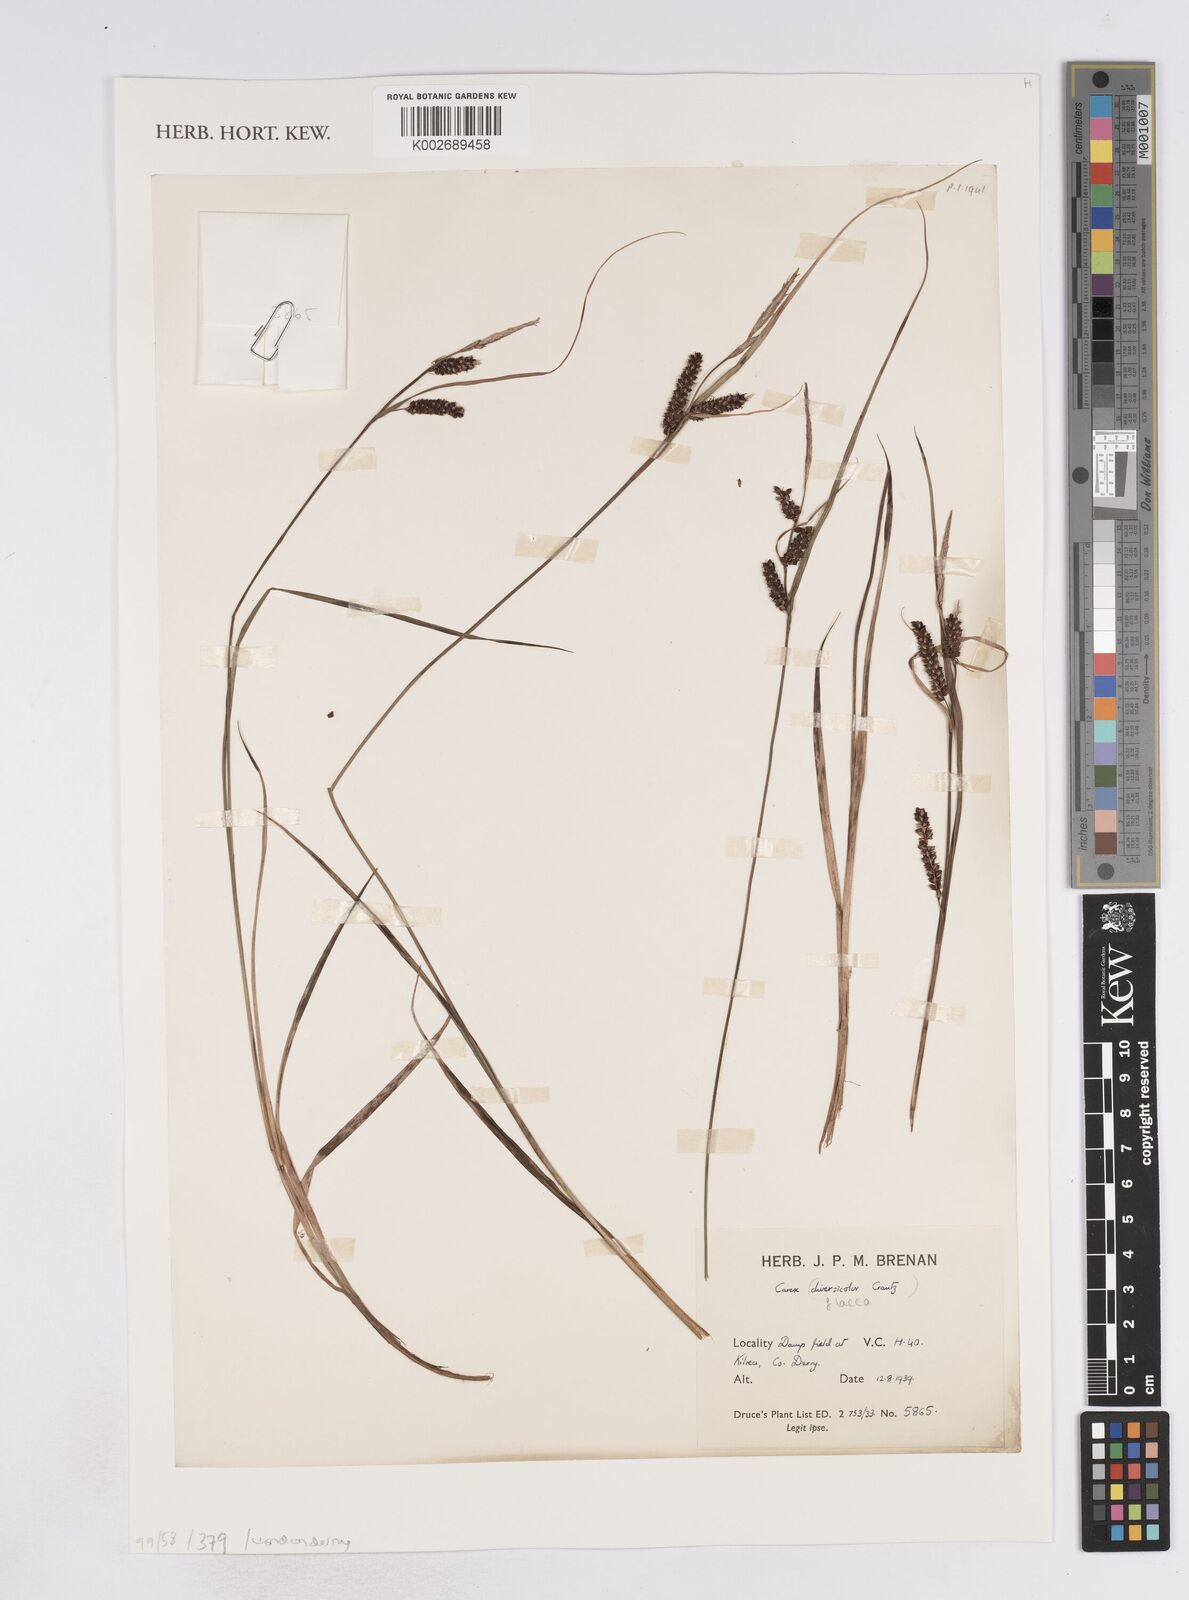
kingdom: Plantae
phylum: Tracheophyta
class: Liliopsida
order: Poales
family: Cyperaceae
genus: Carex
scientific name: Carex flacca
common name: Glaucous sedge
